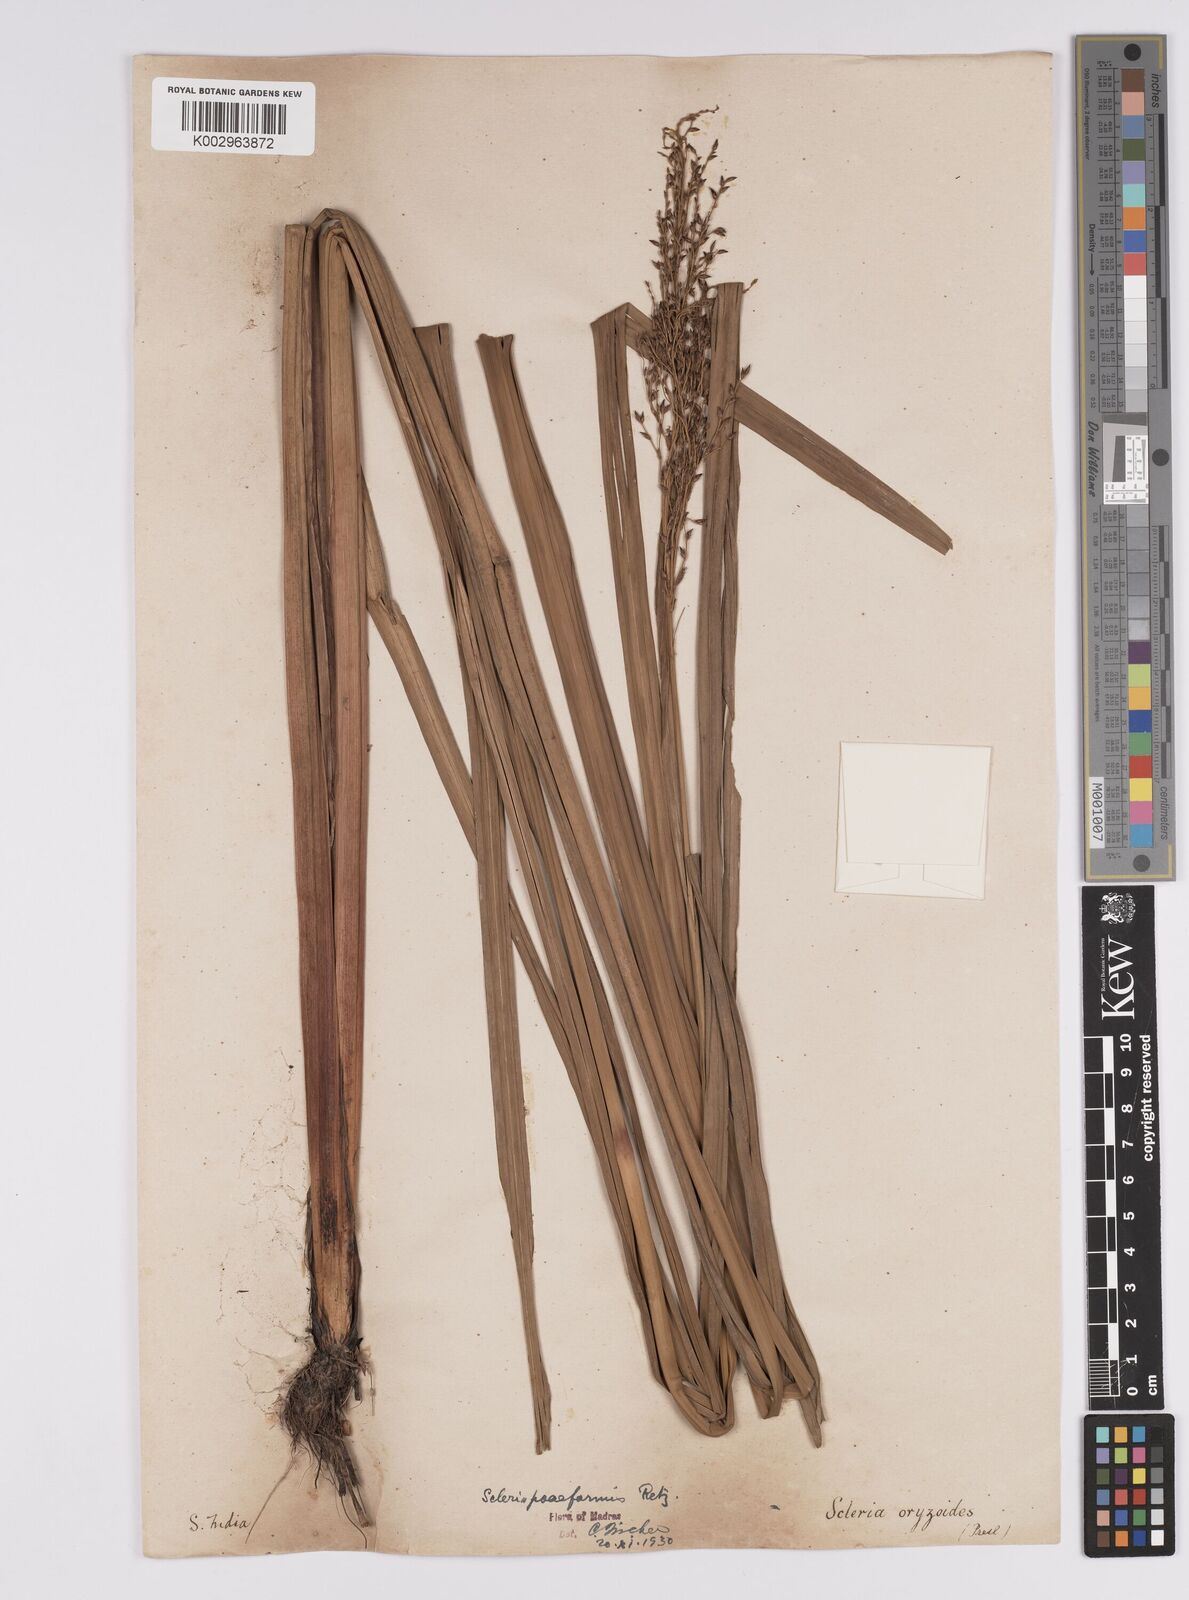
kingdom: Plantae
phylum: Tracheophyta
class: Liliopsida
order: Poales
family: Cyperaceae
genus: Scleria
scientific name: Scleria poiformis
